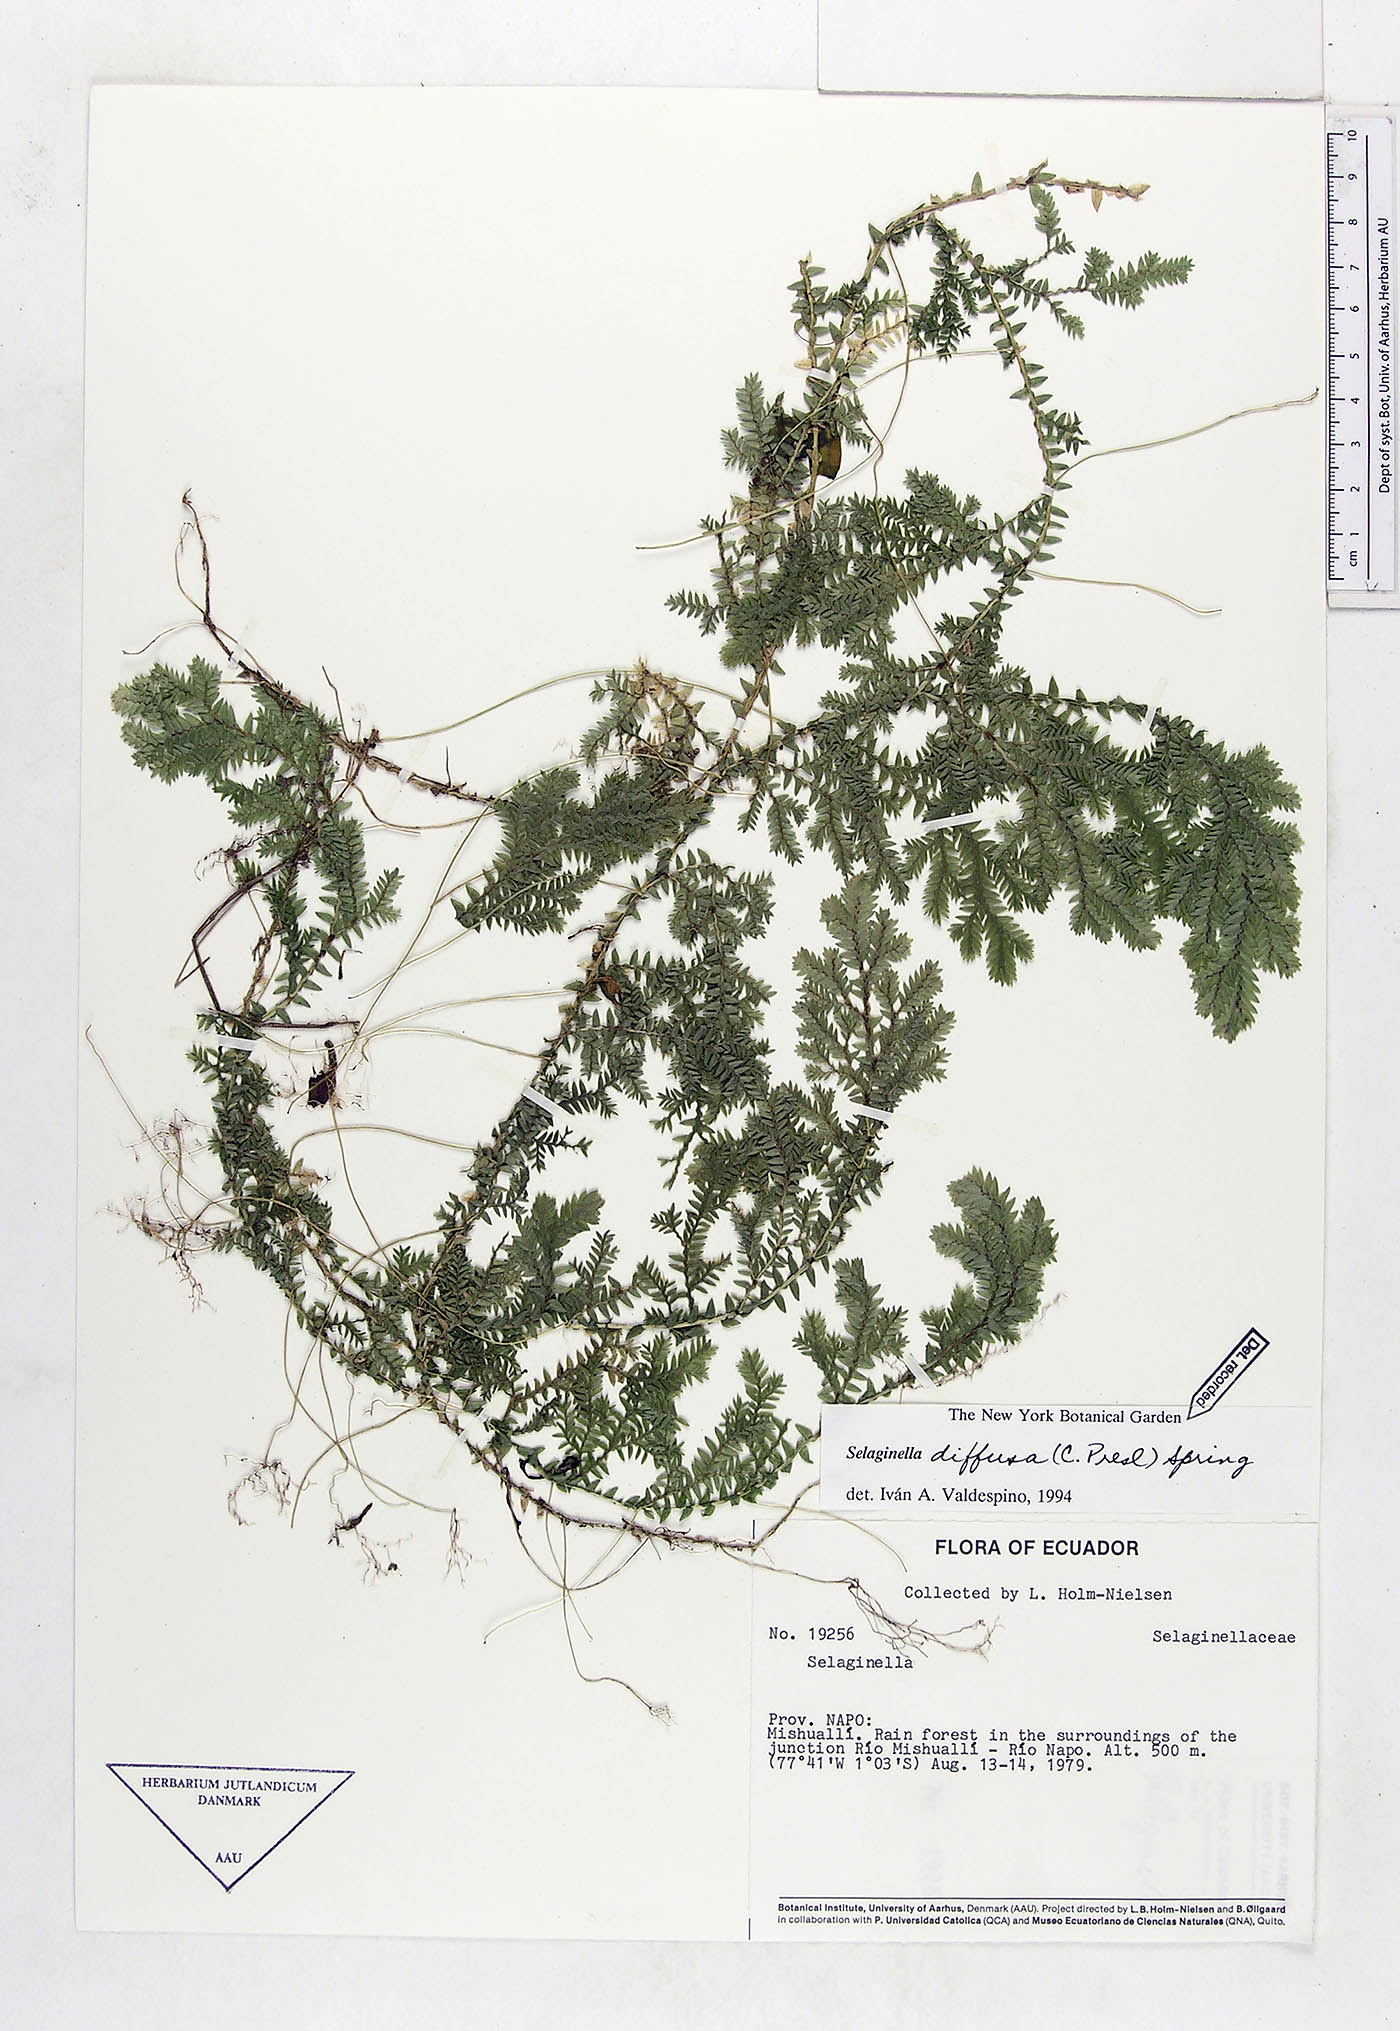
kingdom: Plantae
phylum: Tracheophyta
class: Lycopodiopsida
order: Selaginellales
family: Selaginellaceae
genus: Selaginella
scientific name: Selaginella diffusa
